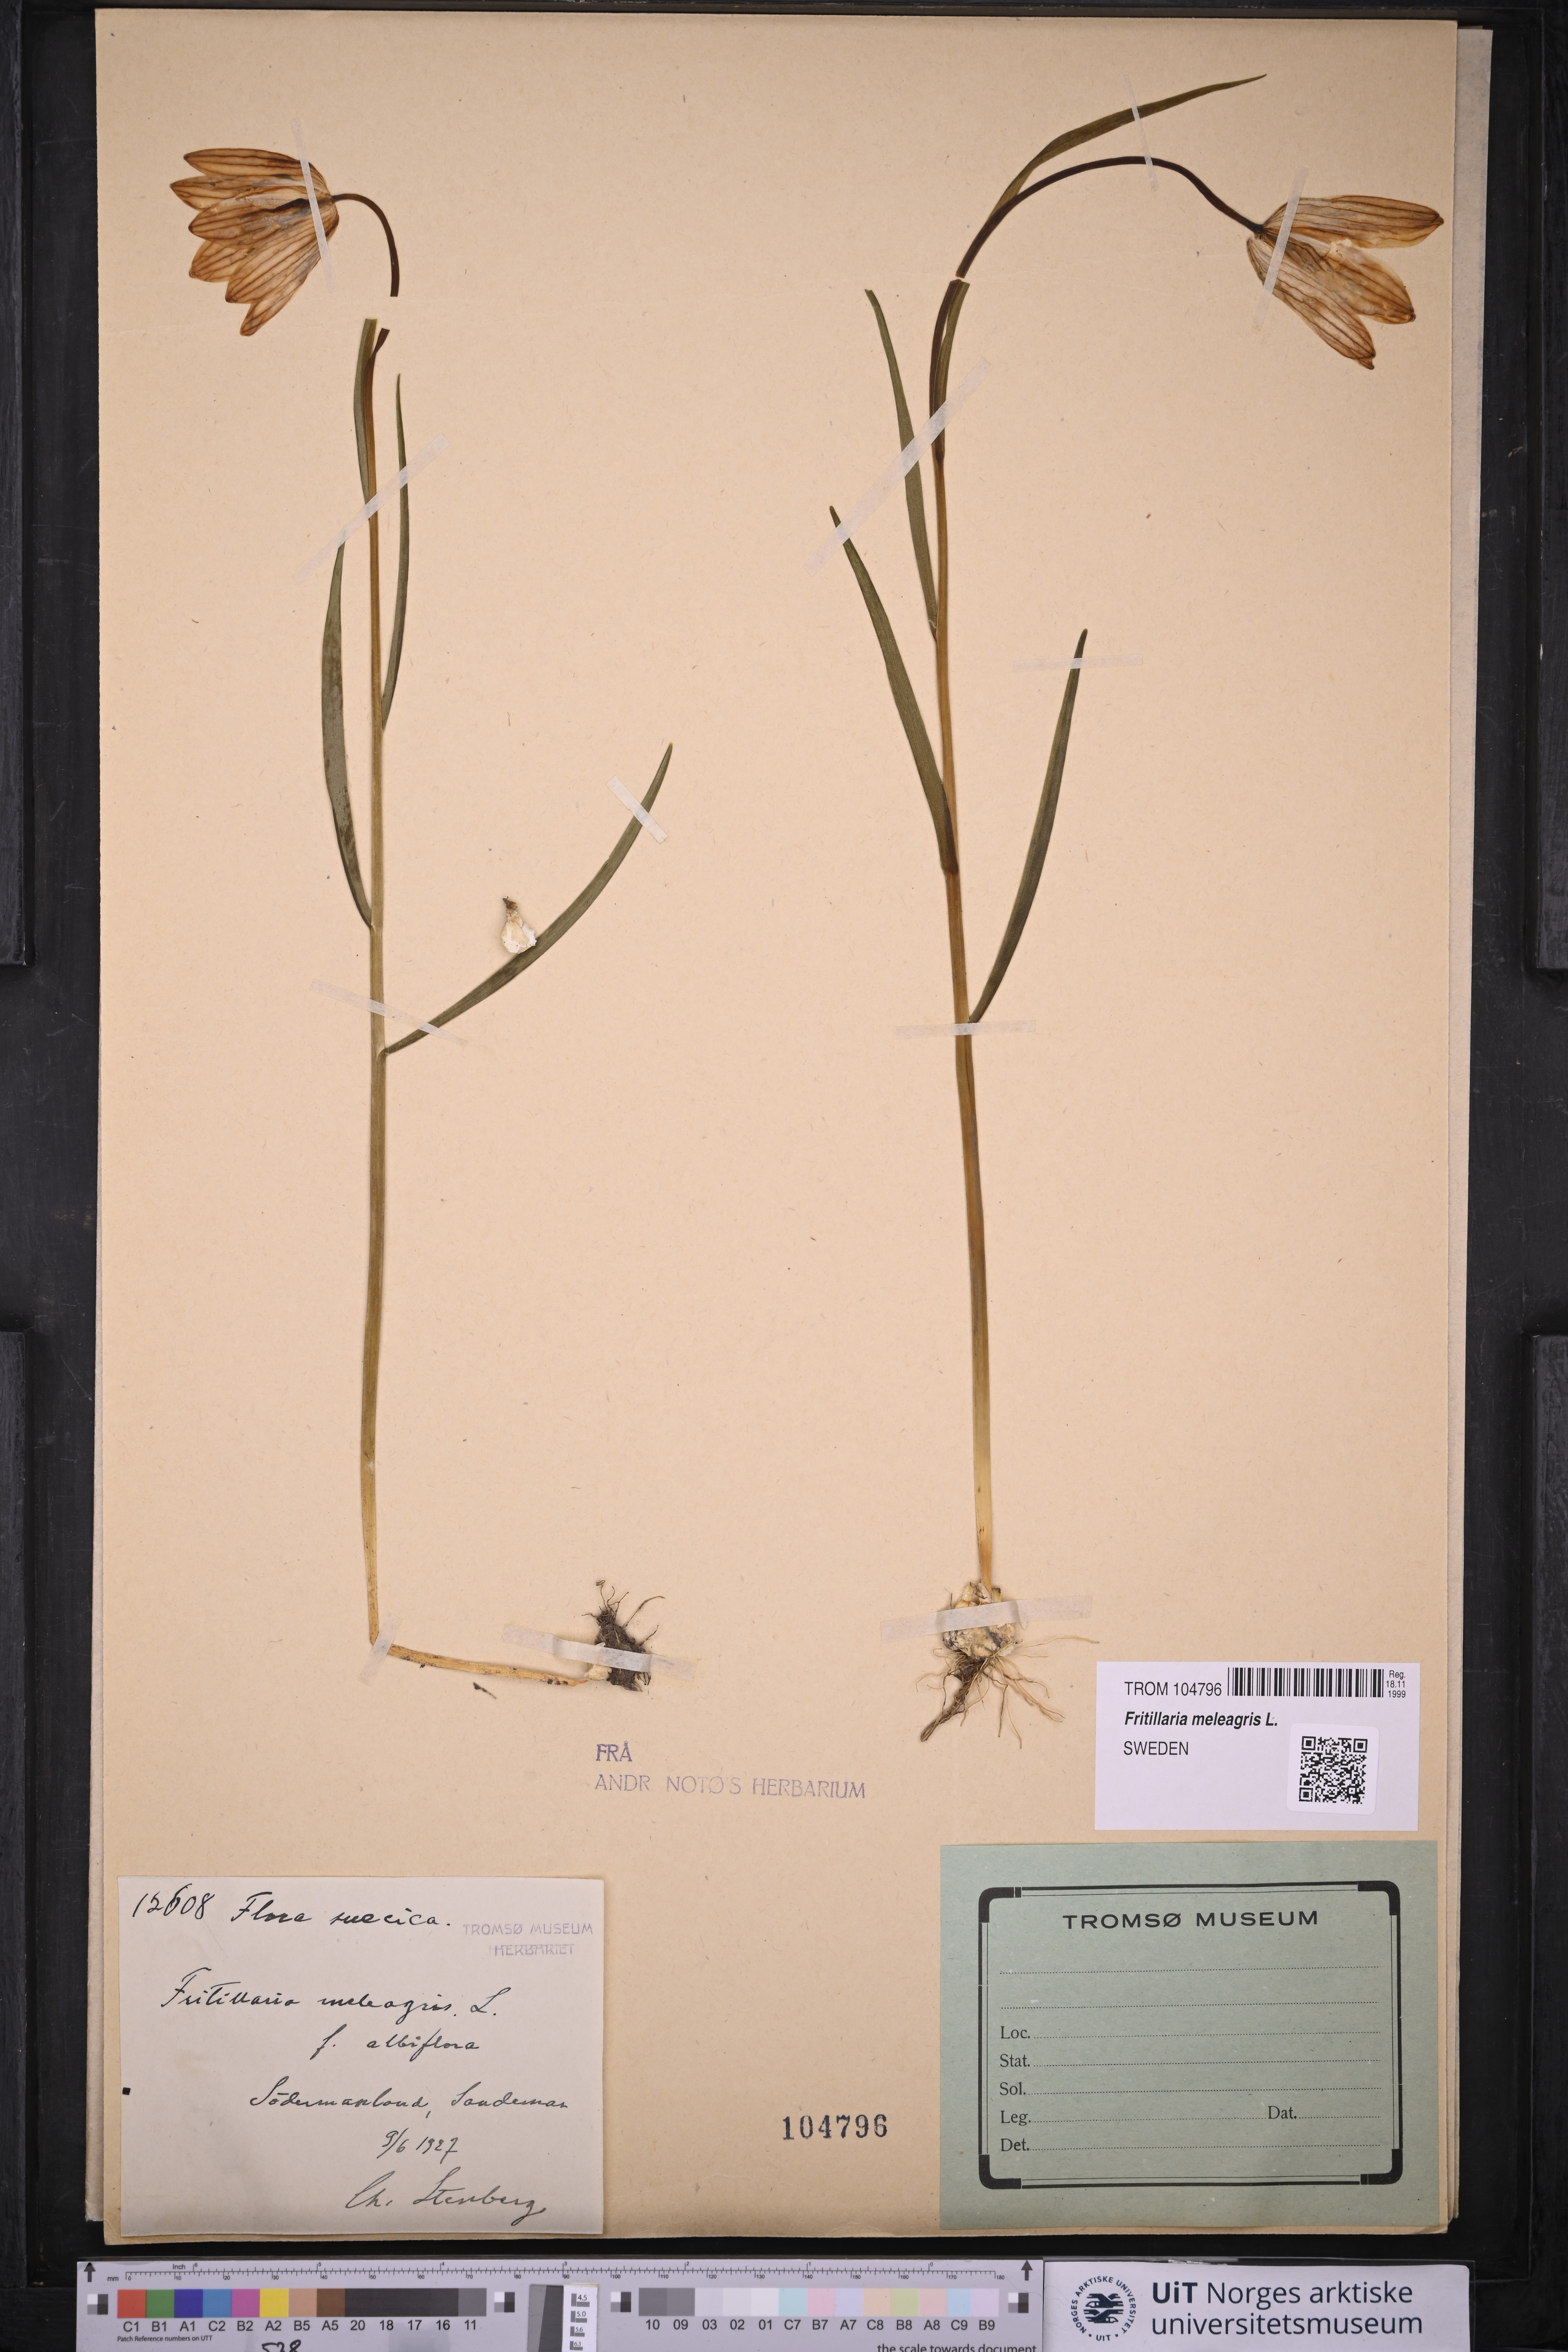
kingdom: Plantae
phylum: Tracheophyta
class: Liliopsida
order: Liliales
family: Liliaceae
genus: Fritillaria
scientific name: Fritillaria meleagris
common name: Fritillary
